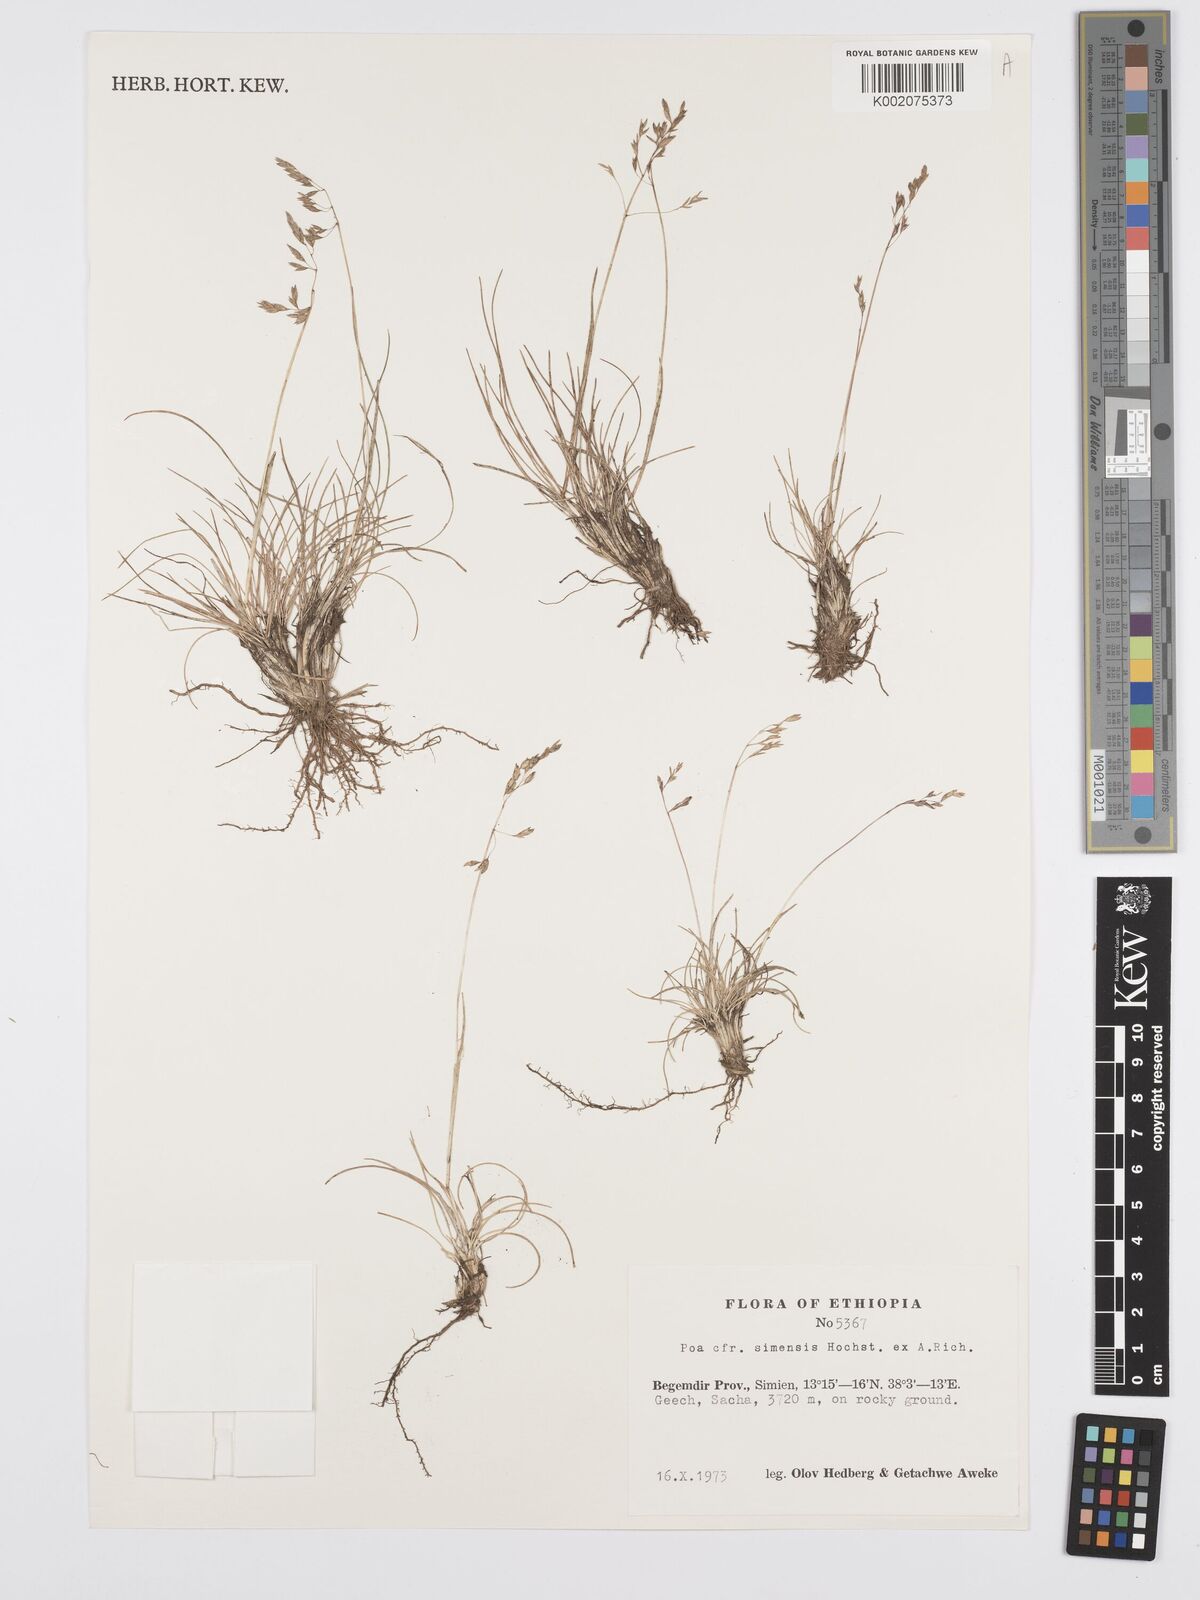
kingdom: Plantae
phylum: Tracheophyta
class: Liliopsida
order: Poales
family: Poaceae
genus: Poa
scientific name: Poa simensis
